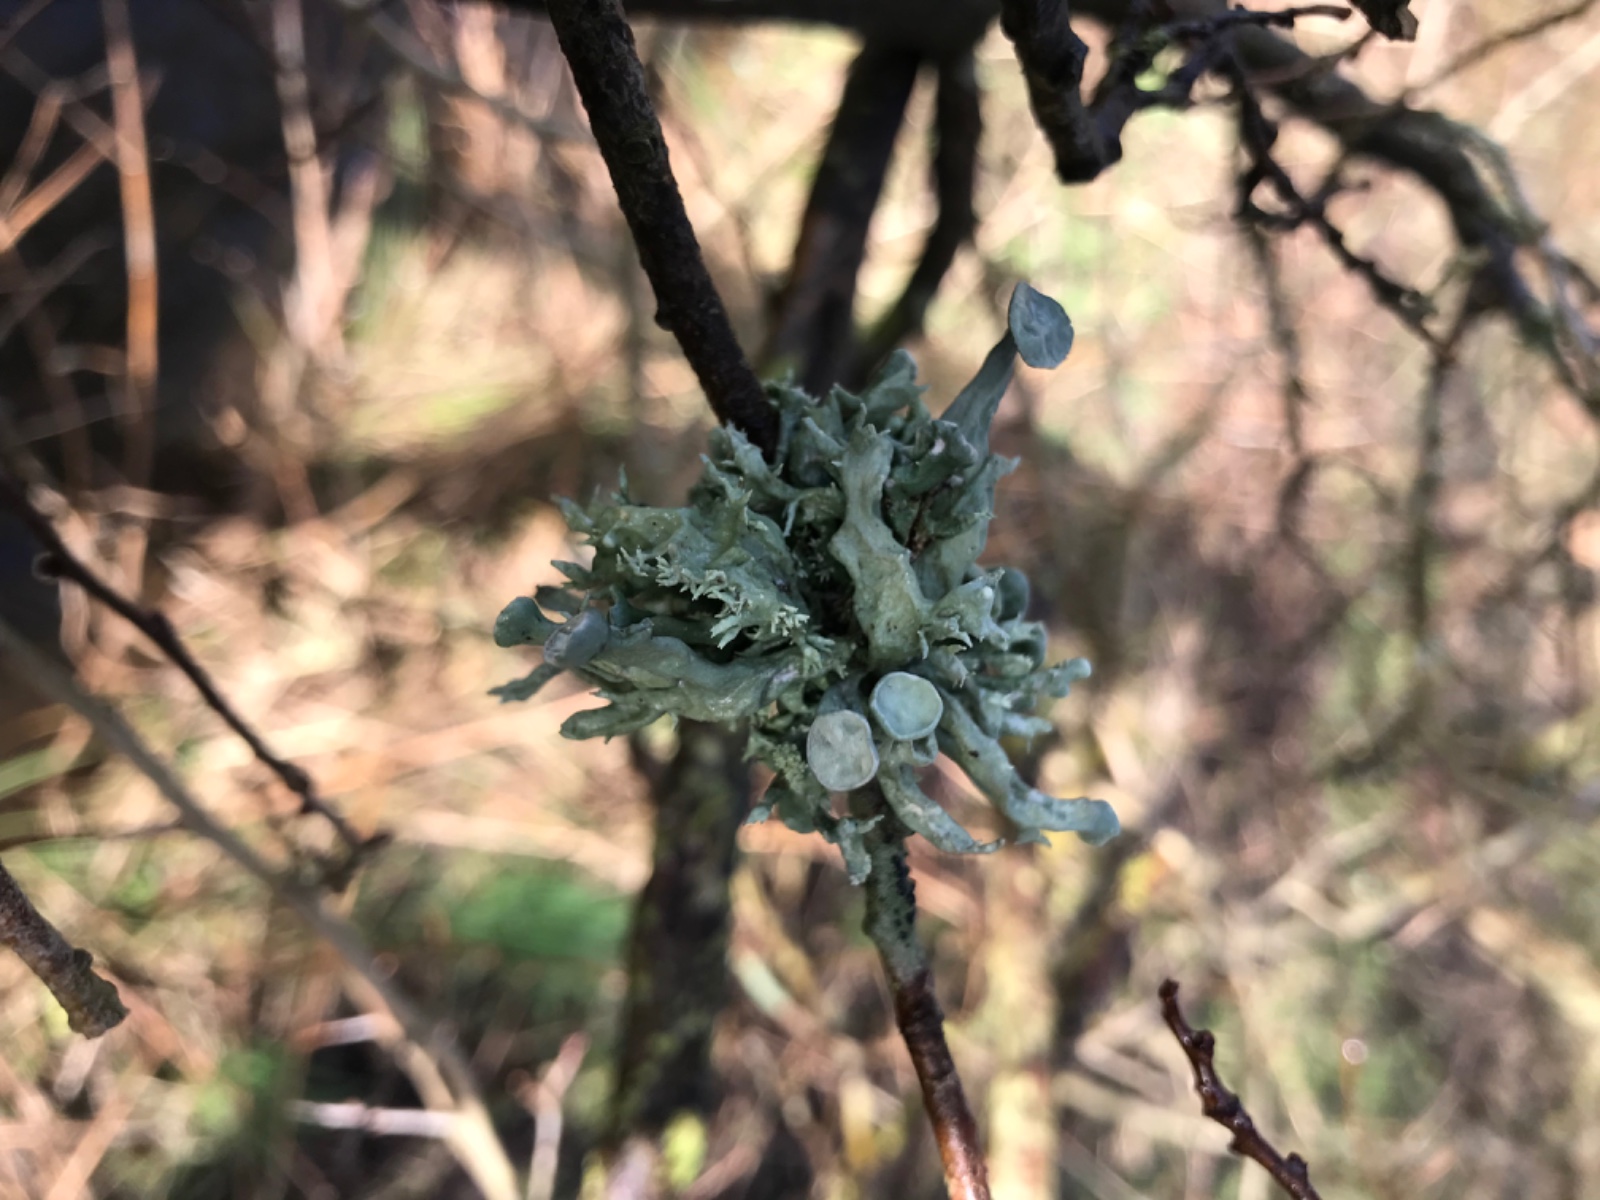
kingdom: Fungi
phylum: Ascomycota
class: Lecanoromycetes
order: Lecanorales
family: Ramalinaceae
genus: Ramalina
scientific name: Ramalina fastigiata
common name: tue-grenlav
